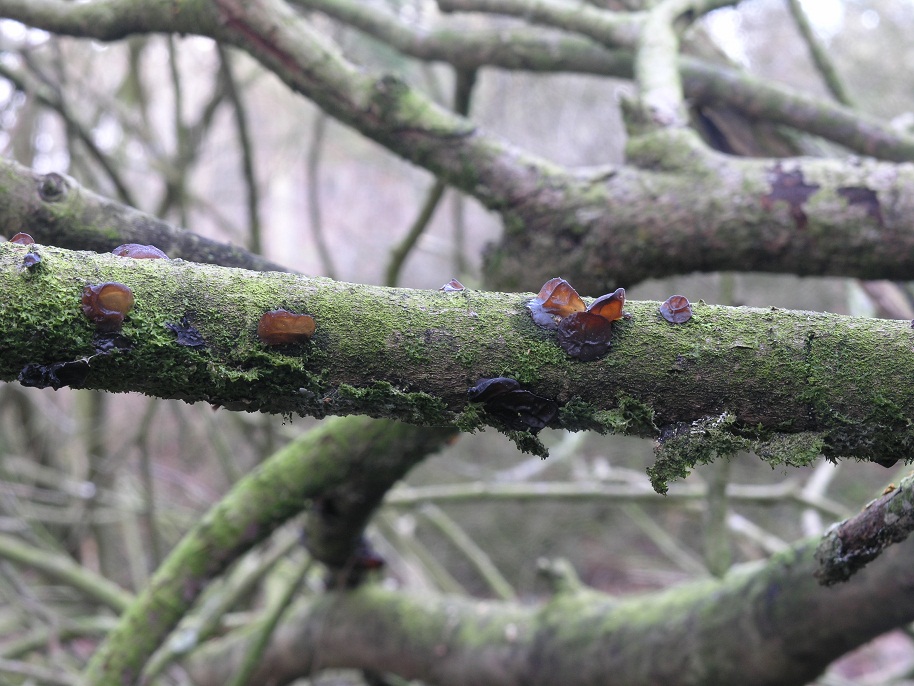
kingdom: Fungi
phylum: Basidiomycota
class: Agaricomycetes
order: Auriculariales
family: Auriculariaceae
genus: Exidia
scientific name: Exidia recisa
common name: pile-bævretop
